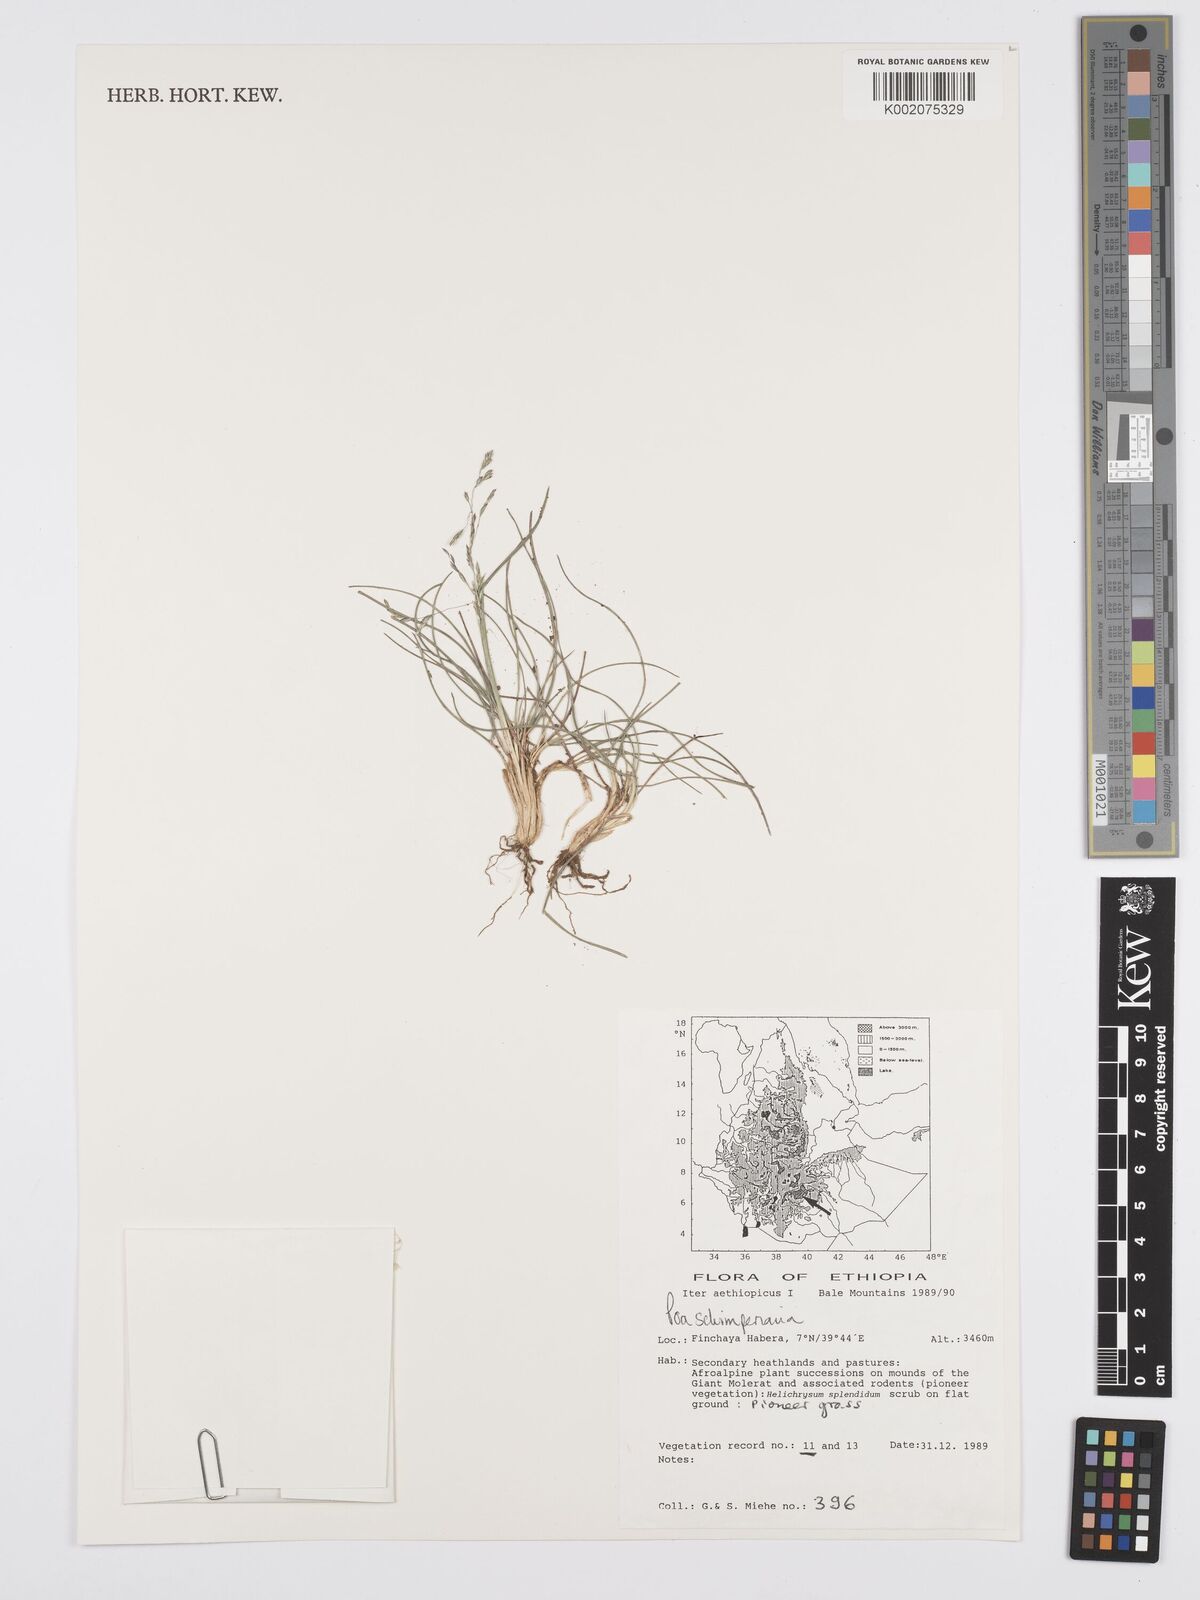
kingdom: Plantae
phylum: Tracheophyta
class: Liliopsida
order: Poales
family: Poaceae
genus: Poa
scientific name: Poa schimperiana
